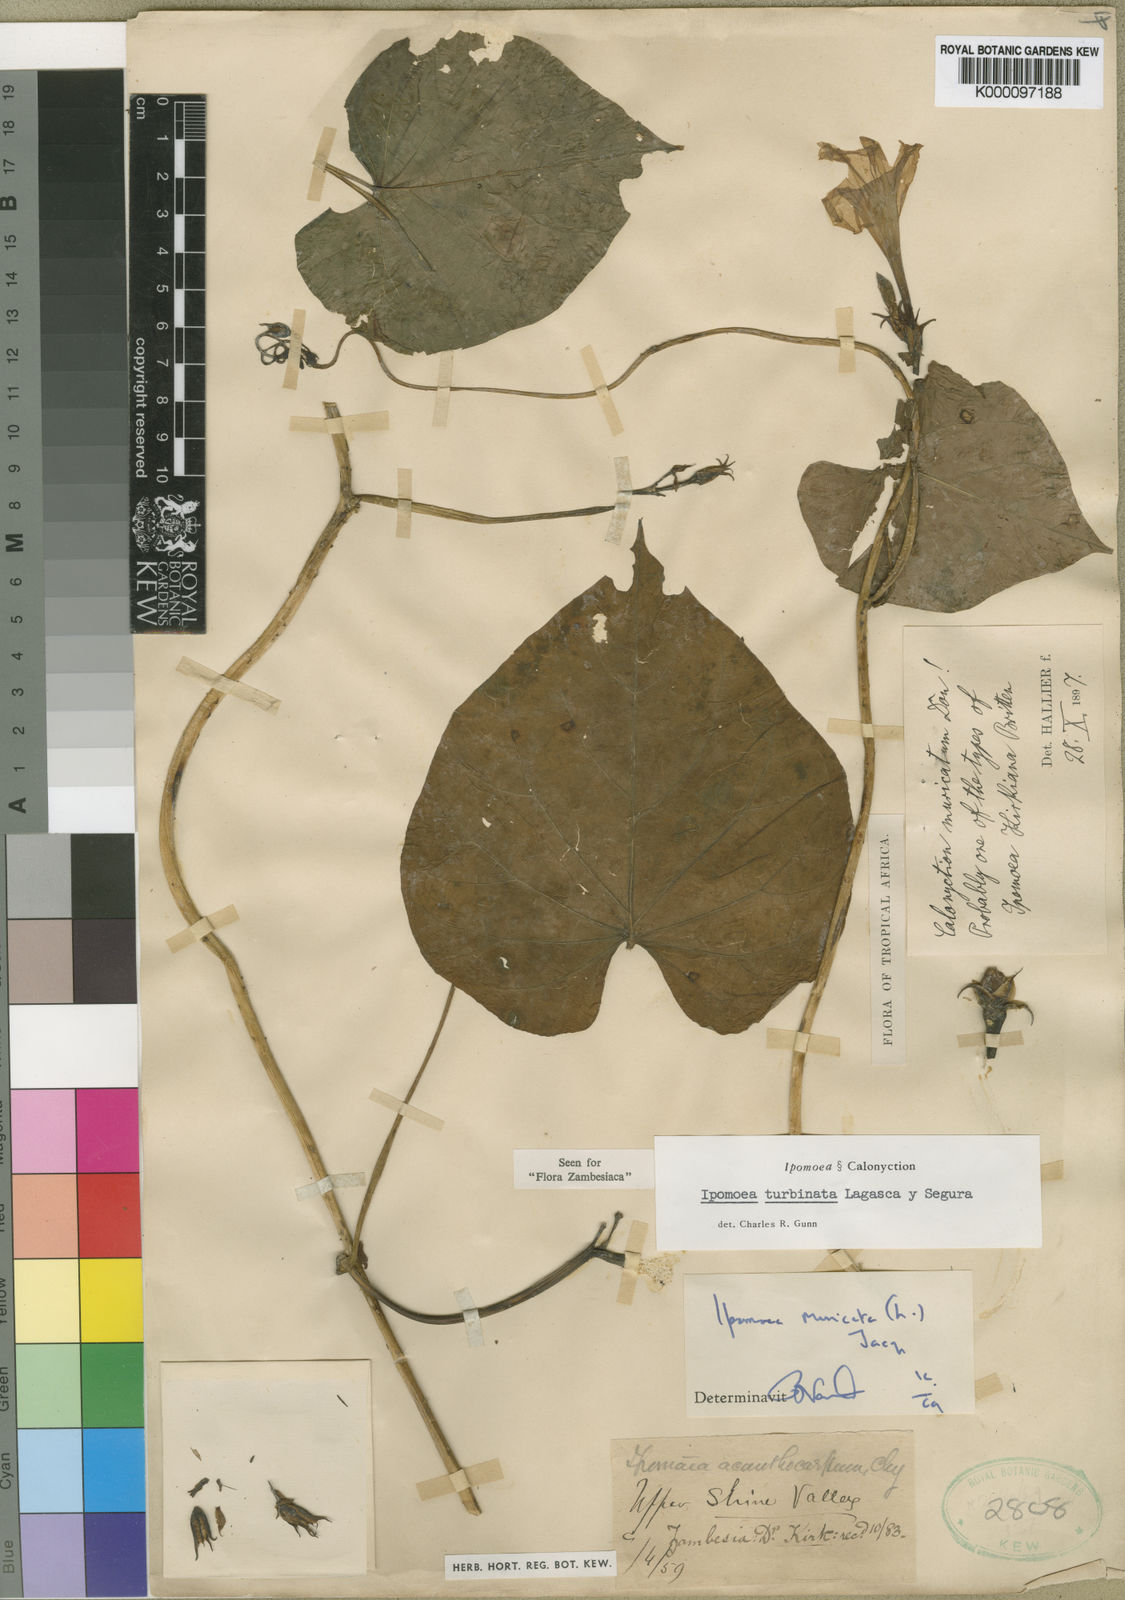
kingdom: Plantae
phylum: Tracheophyta
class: Magnoliopsida
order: Solanales
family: Convolvulaceae
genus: Ipomoea
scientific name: Ipomoea muricata
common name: Lilac-bell
